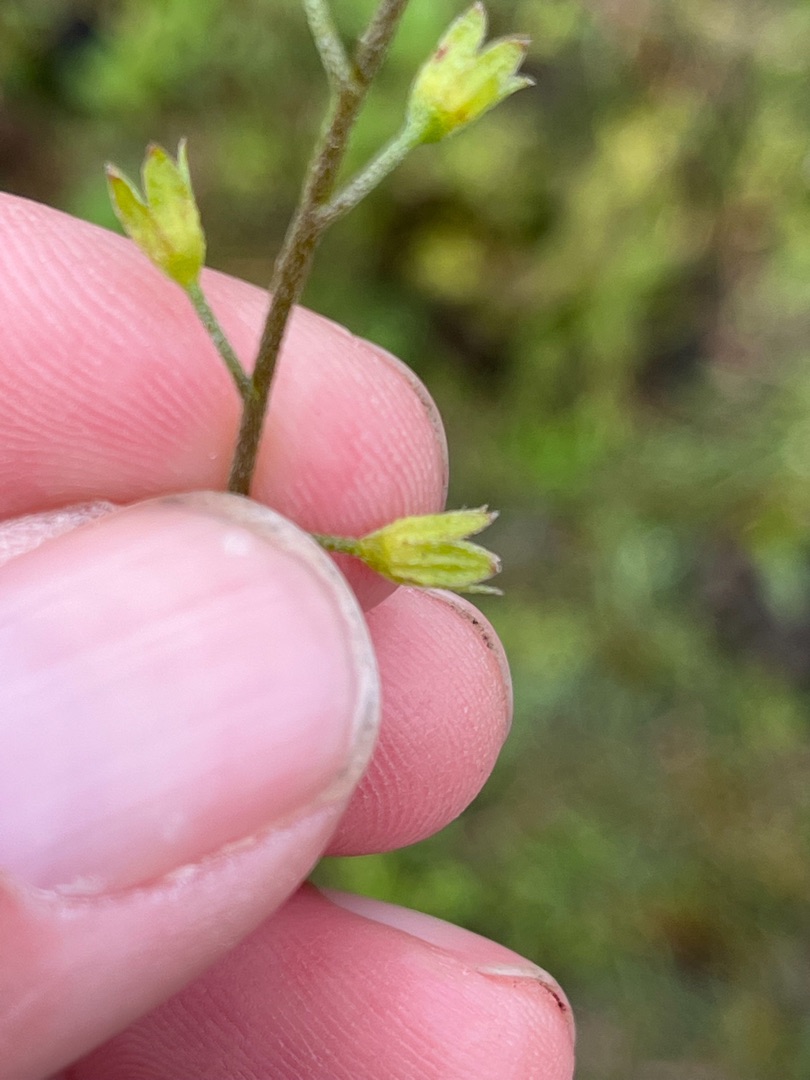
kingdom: Plantae
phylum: Tracheophyta
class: Magnoliopsida
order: Boraginales
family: Boraginaceae
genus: Myosotis
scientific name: Myosotis laxa
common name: Sump-forglemmigej
